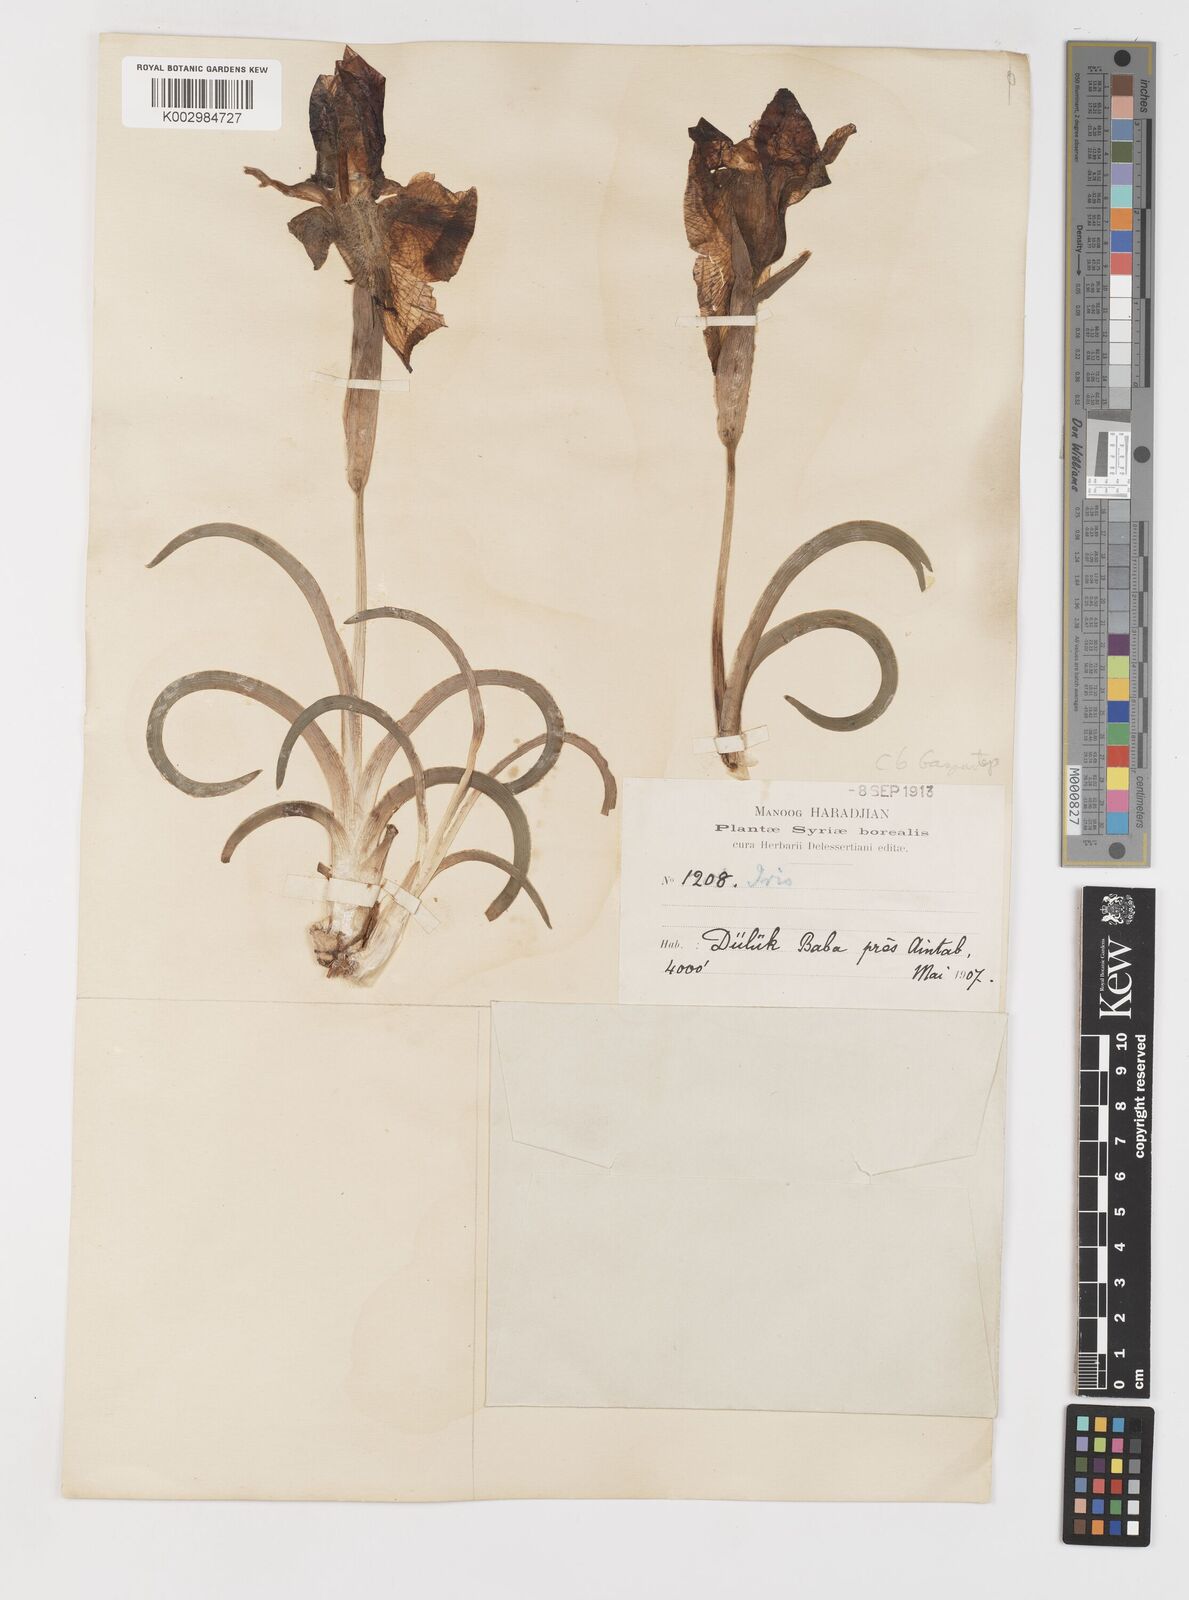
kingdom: Plantae
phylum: Tracheophyta
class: Liliopsida
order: Asparagales
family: Iridaceae
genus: Iris
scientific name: Iris sari
